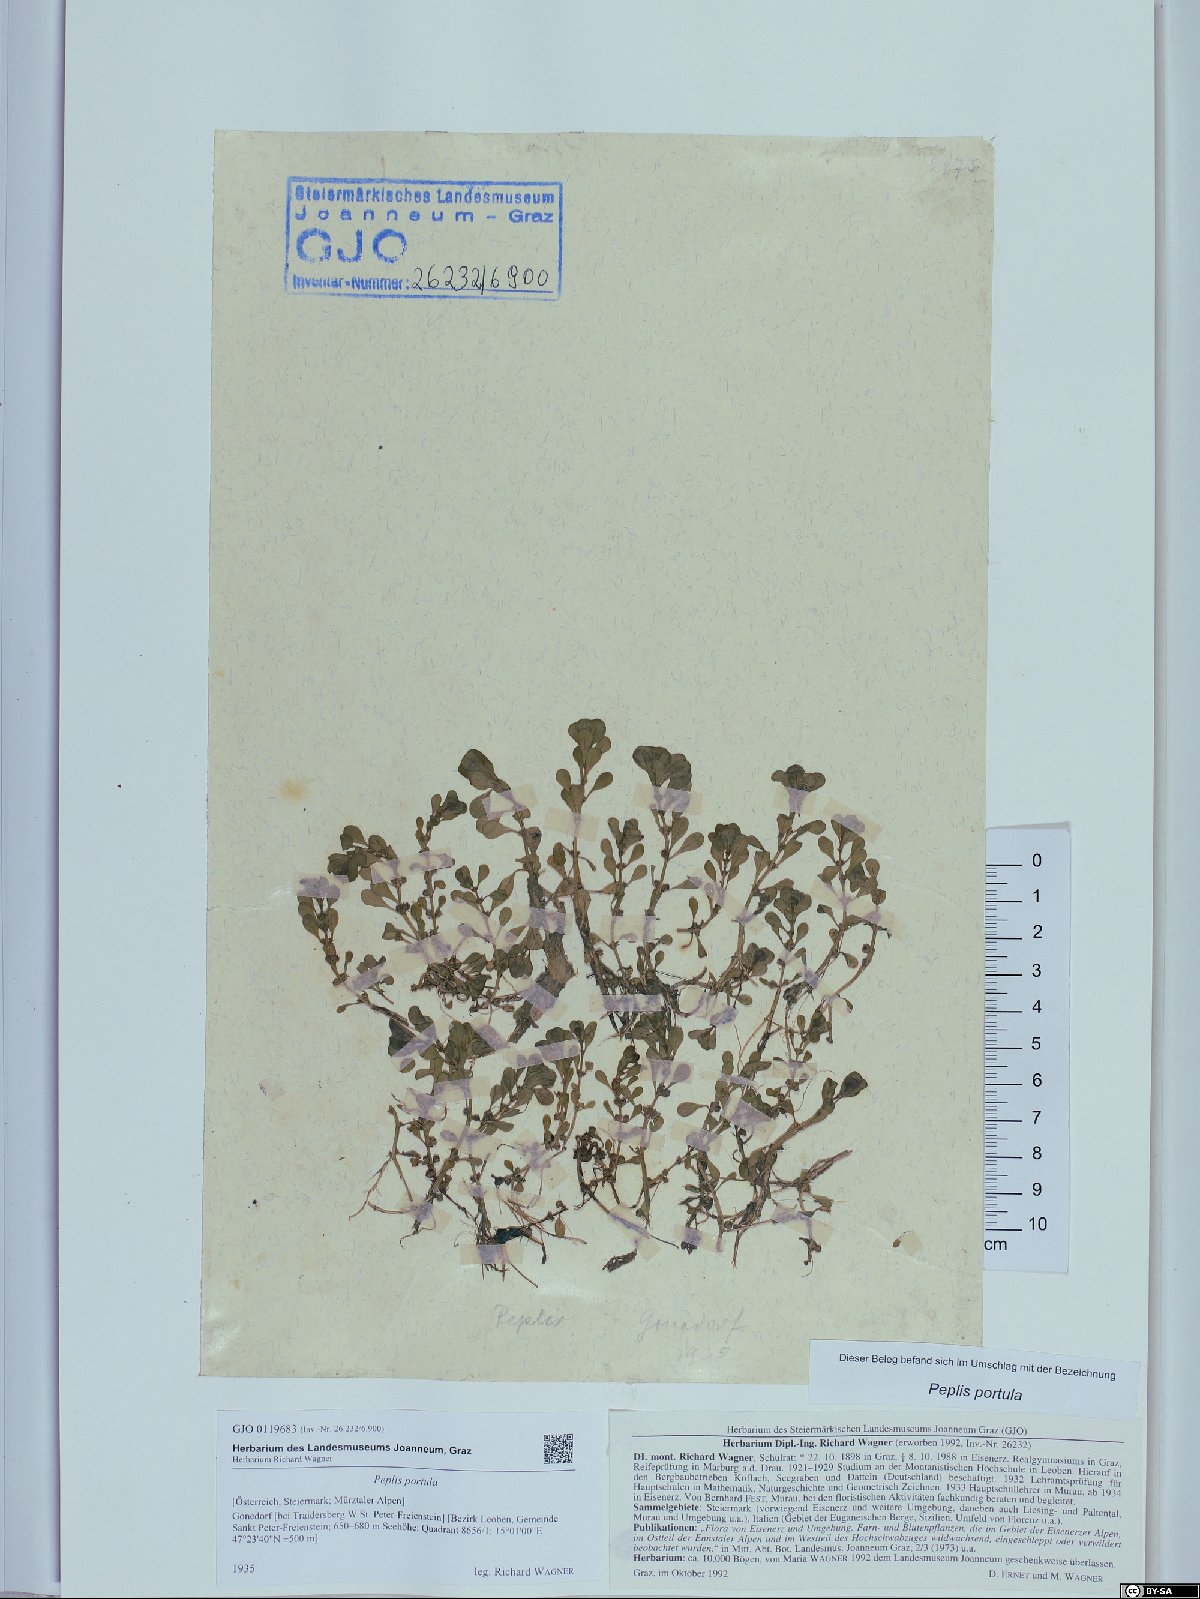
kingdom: Plantae
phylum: Tracheophyta
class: Magnoliopsida
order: Myrtales
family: Lythraceae
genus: Lythrum
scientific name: Lythrum portula
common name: Water purslane
